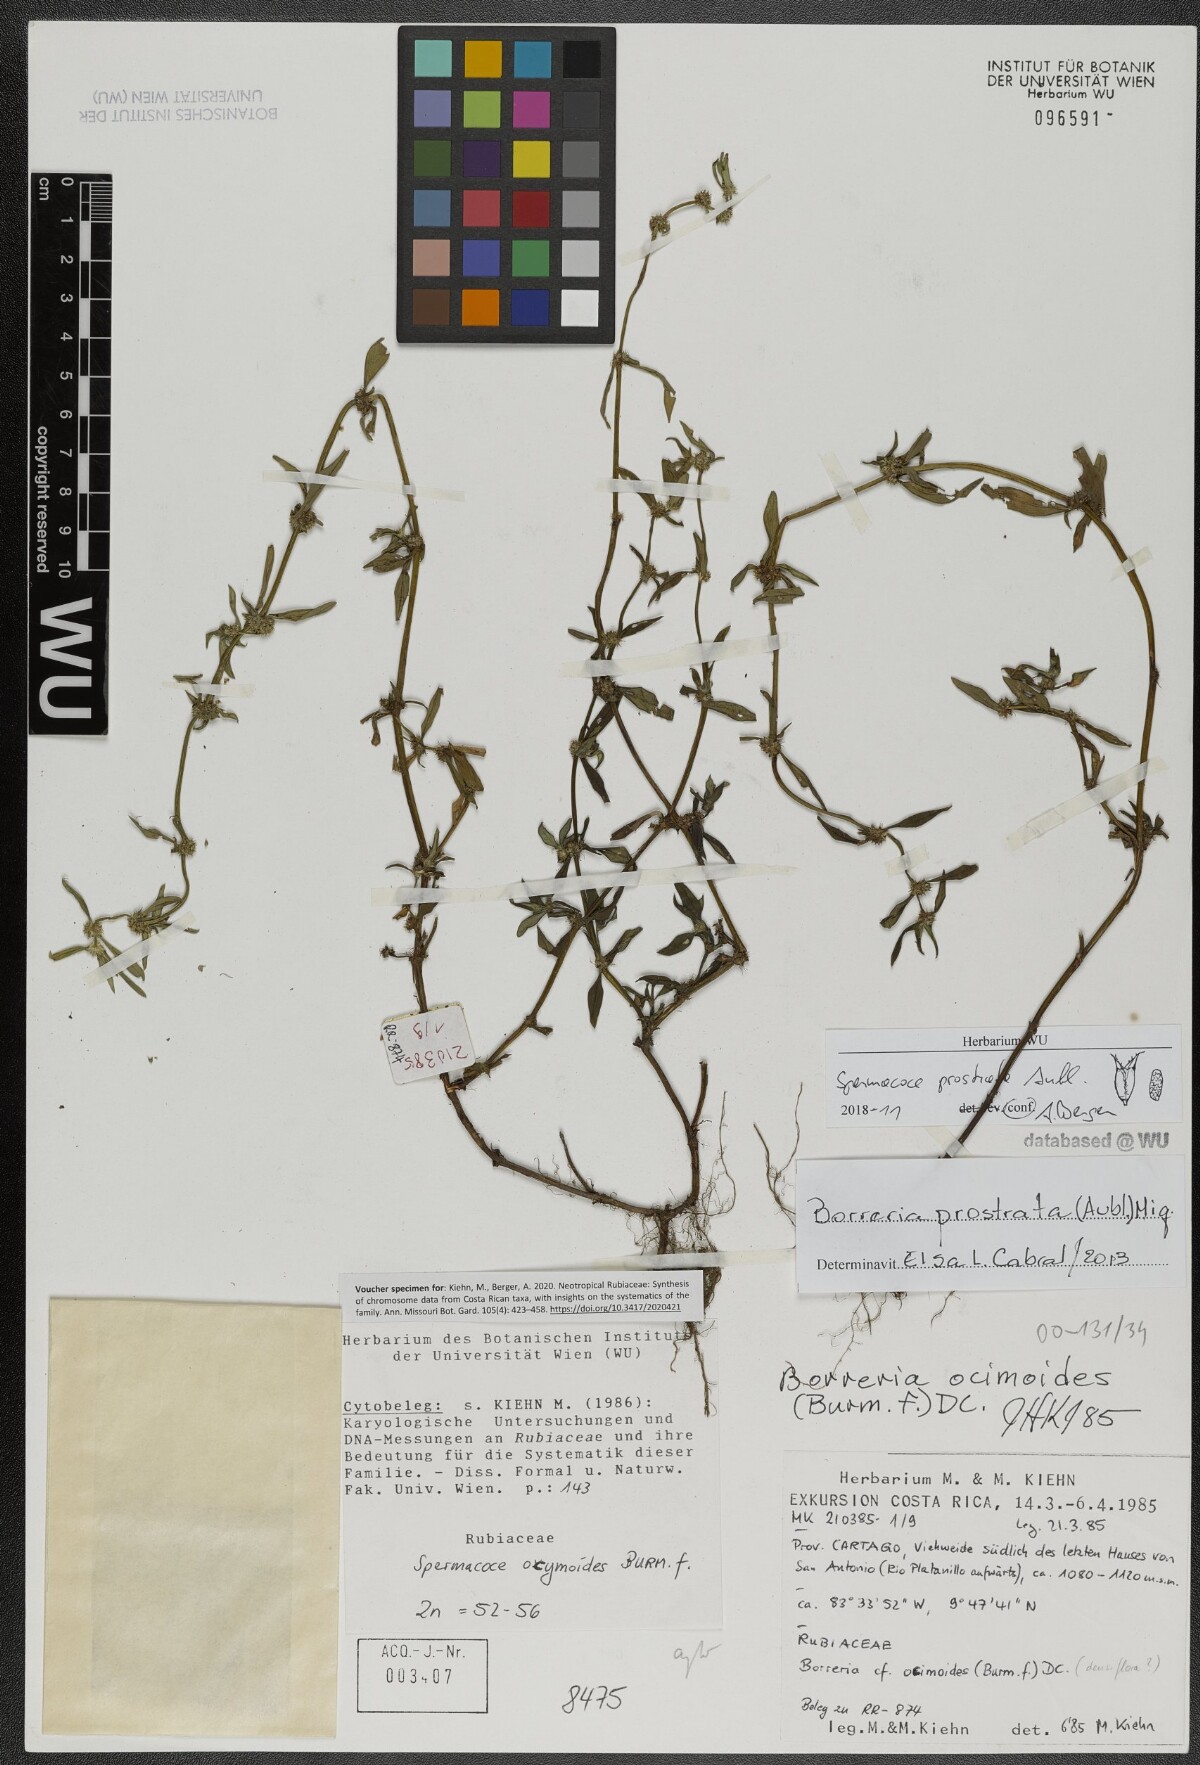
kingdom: Plantae
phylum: Tracheophyta
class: Magnoliopsida
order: Gentianales
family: Rubiaceae
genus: Spermacoce
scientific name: Spermacoce prostrata
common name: Prostrate false buttonweed
